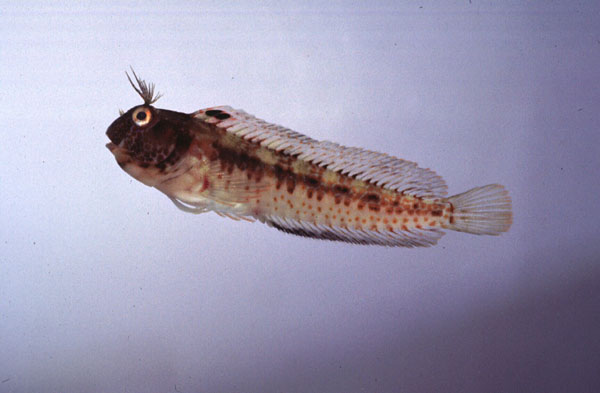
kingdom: Animalia
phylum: Chordata
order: Perciformes
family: Blenniidae
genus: Parablennius
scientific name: Parablennius pilicornis
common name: Ringneck blenny
